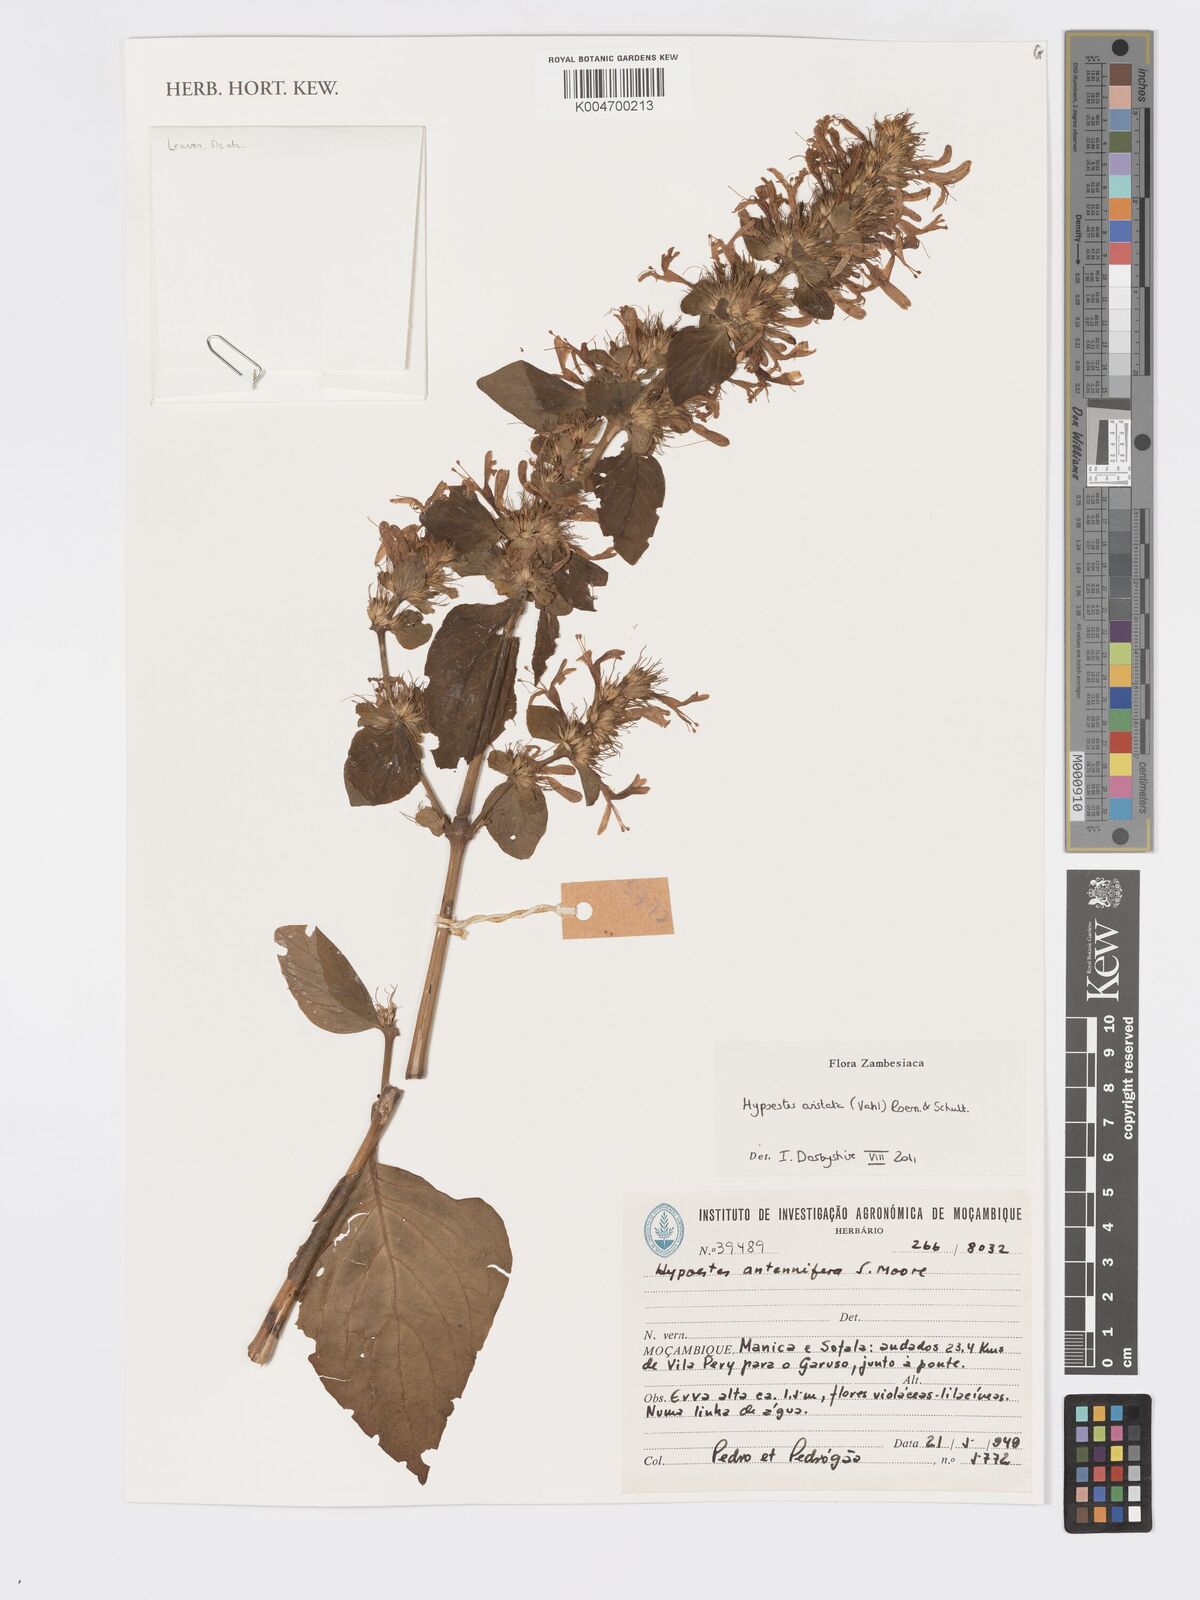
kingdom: Plantae
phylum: Tracheophyta
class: Magnoliopsida
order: Lamiales
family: Acanthaceae
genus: Hypoestes
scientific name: Hypoestes aristata
